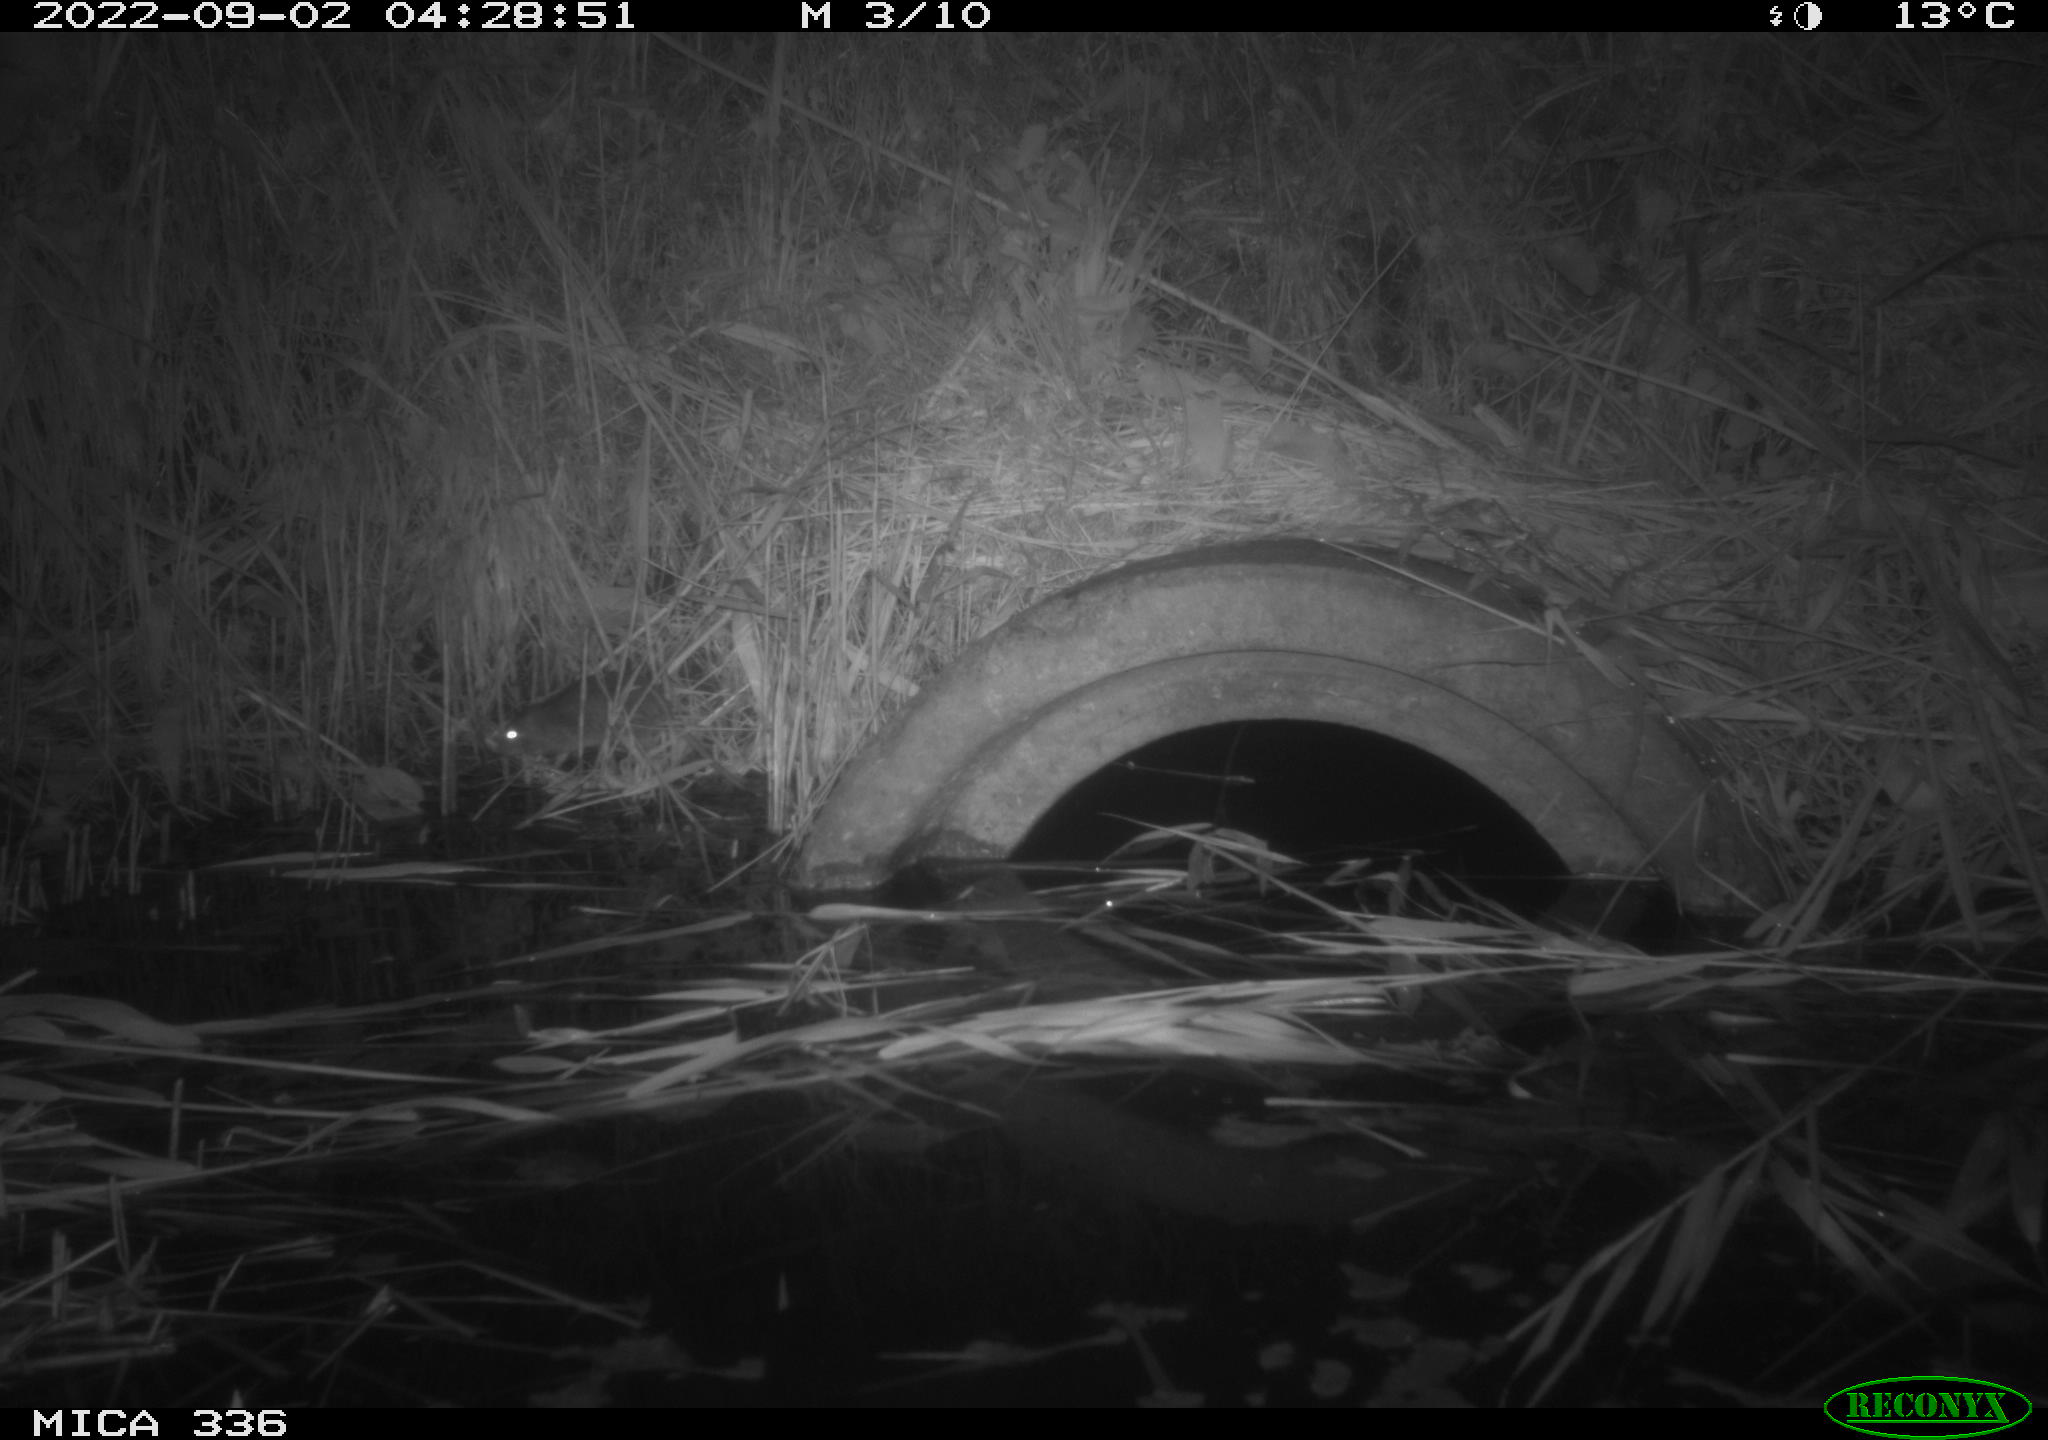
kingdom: Animalia
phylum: Chordata
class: Mammalia
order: Rodentia
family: Muridae
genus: Rattus
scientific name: Rattus norvegicus
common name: Brown rat
